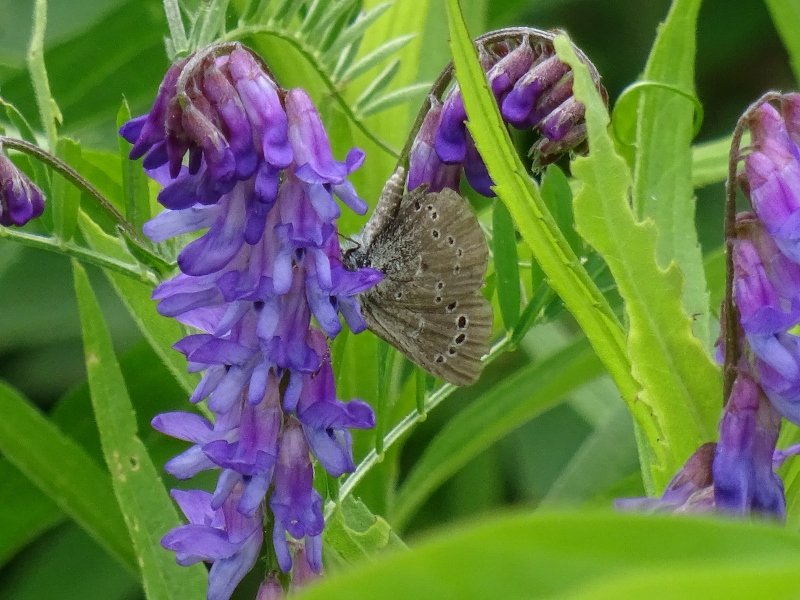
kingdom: Animalia
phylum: Arthropoda
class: Insecta
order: Lepidoptera
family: Lycaenidae
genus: Glaucopsyche
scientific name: Glaucopsyche lygdamus
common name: Silvery Blue
